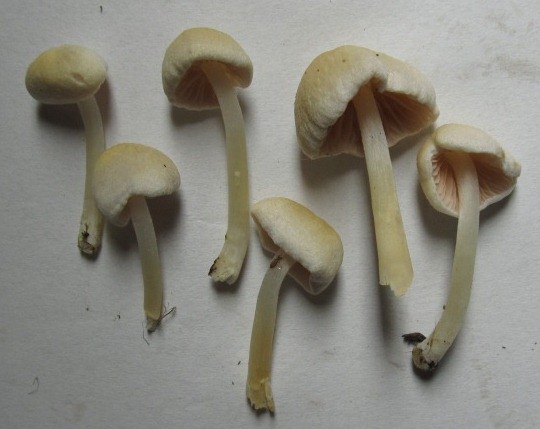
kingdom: Fungi
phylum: Basidiomycota
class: Agaricomycetes
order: Agaricales
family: Entolomataceae
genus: Entoloma
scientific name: Entoloma sericellum
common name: silkehvid rødblad
